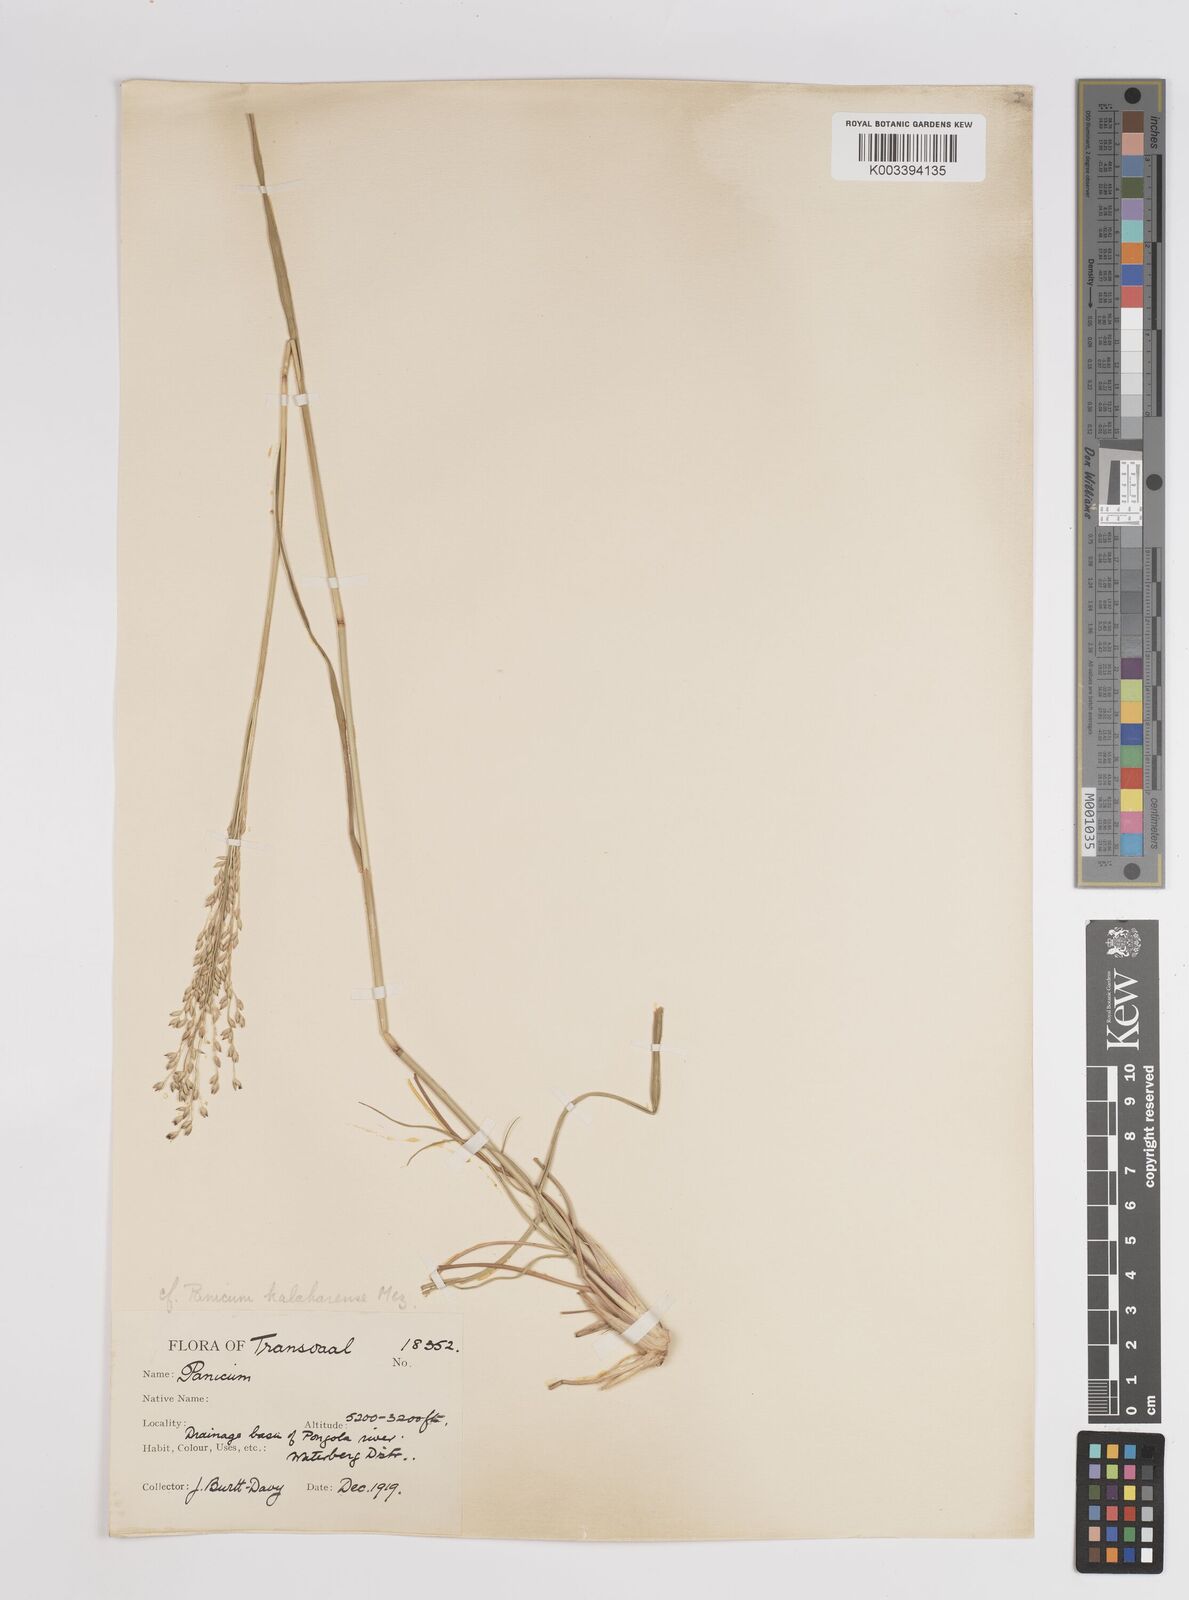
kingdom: Plantae
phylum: Tracheophyta
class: Liliopsida
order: Poales
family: Poaceae
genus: Panicum
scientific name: Panicum kalaharense
